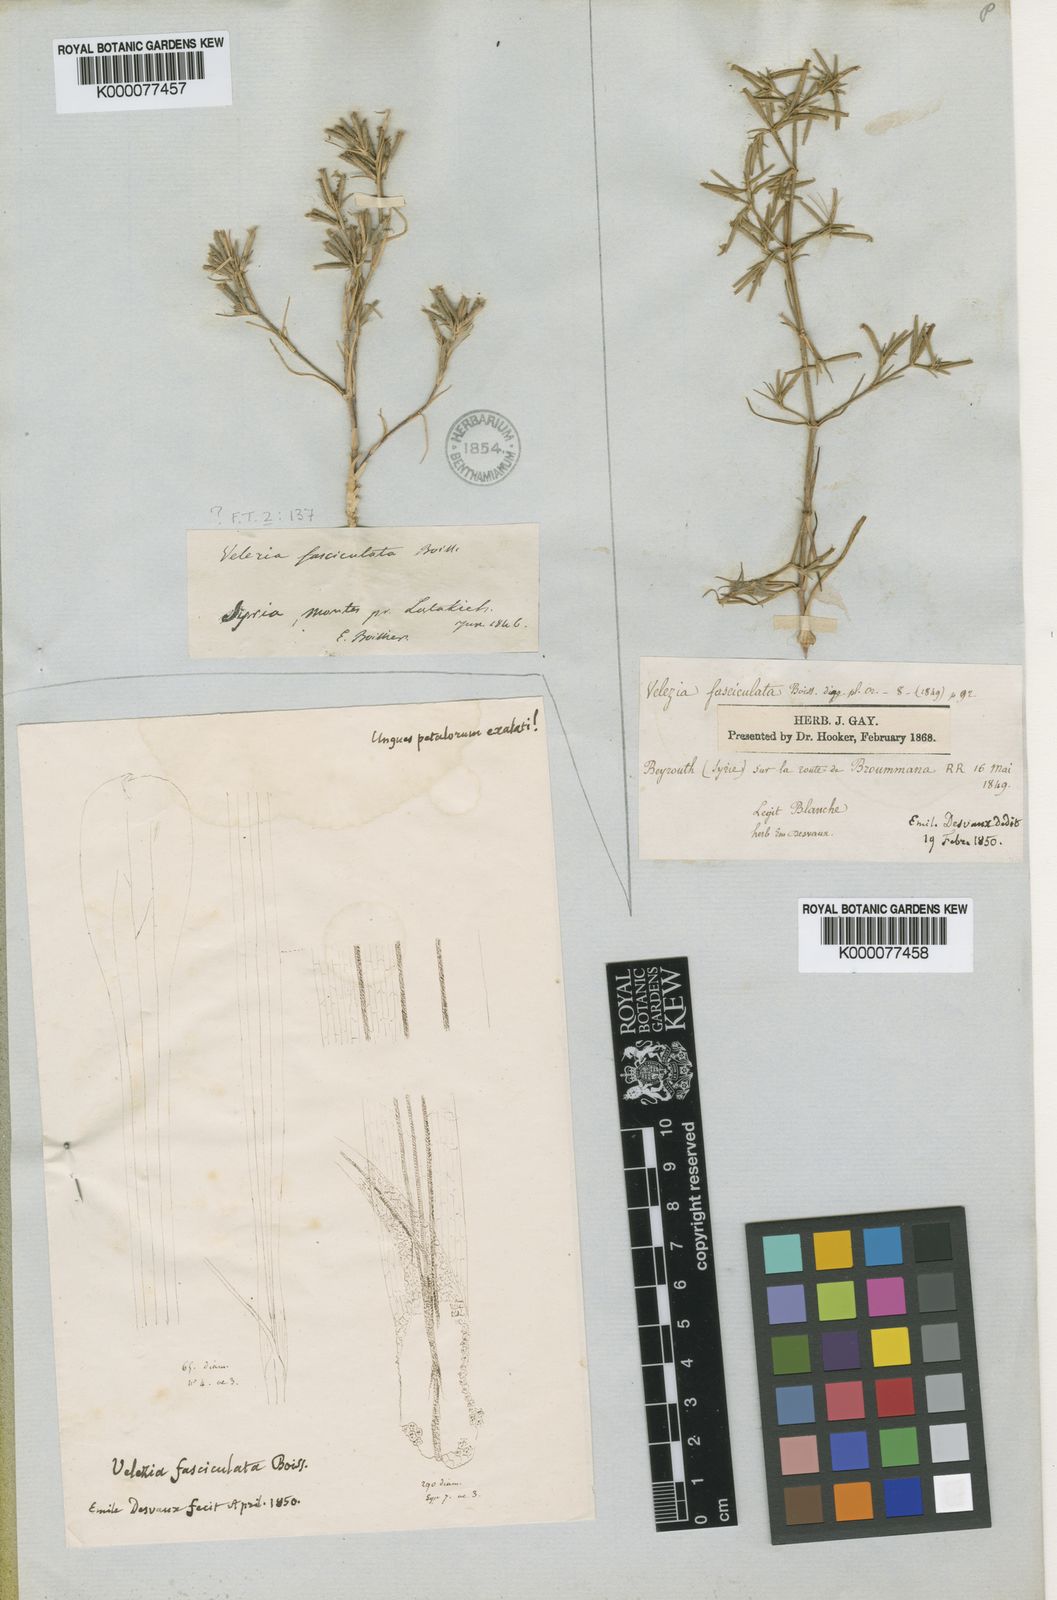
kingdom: Plantae
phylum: Tracheophyta
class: Magnoliopsida
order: Caryophyllales
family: Caryophyllaceae
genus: Dianthus
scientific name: Dianthus fasciculatus
